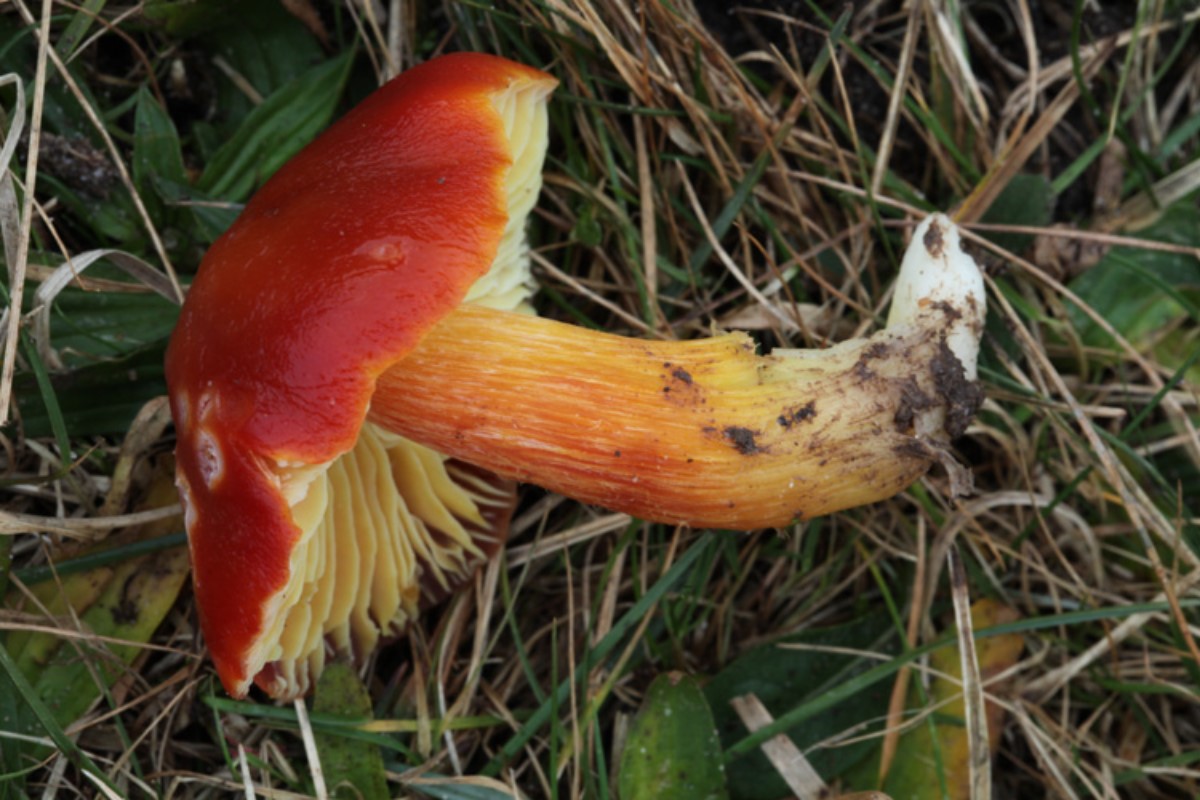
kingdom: Fungi
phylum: Basidiomycota
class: Agaricomycetes
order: Agaricales
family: Hygrophoraceae
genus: Hygrocybe
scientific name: Hygrocybe punicea
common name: skarlagen-vokshat
